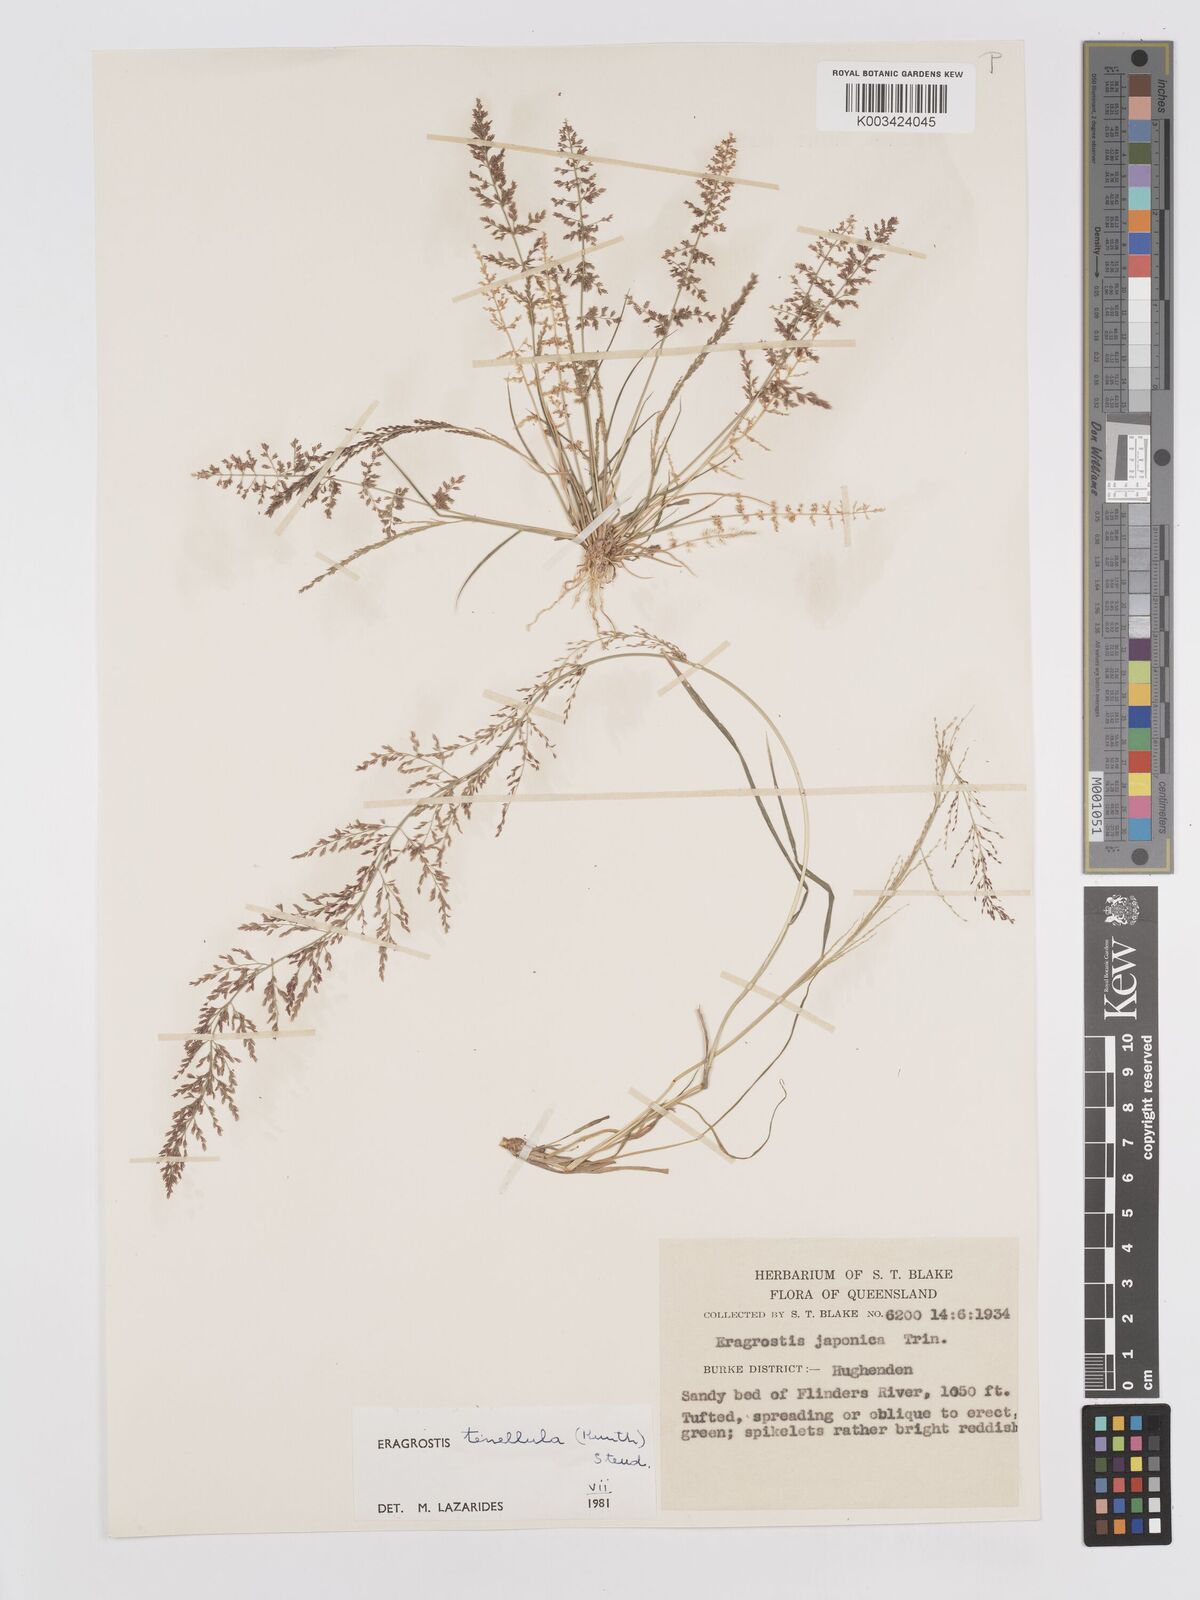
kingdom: Plantae
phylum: Tracheophyta
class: Liliopsida
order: Poales
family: Poaceae
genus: Eragrostis
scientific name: Eragrostis tenellula
